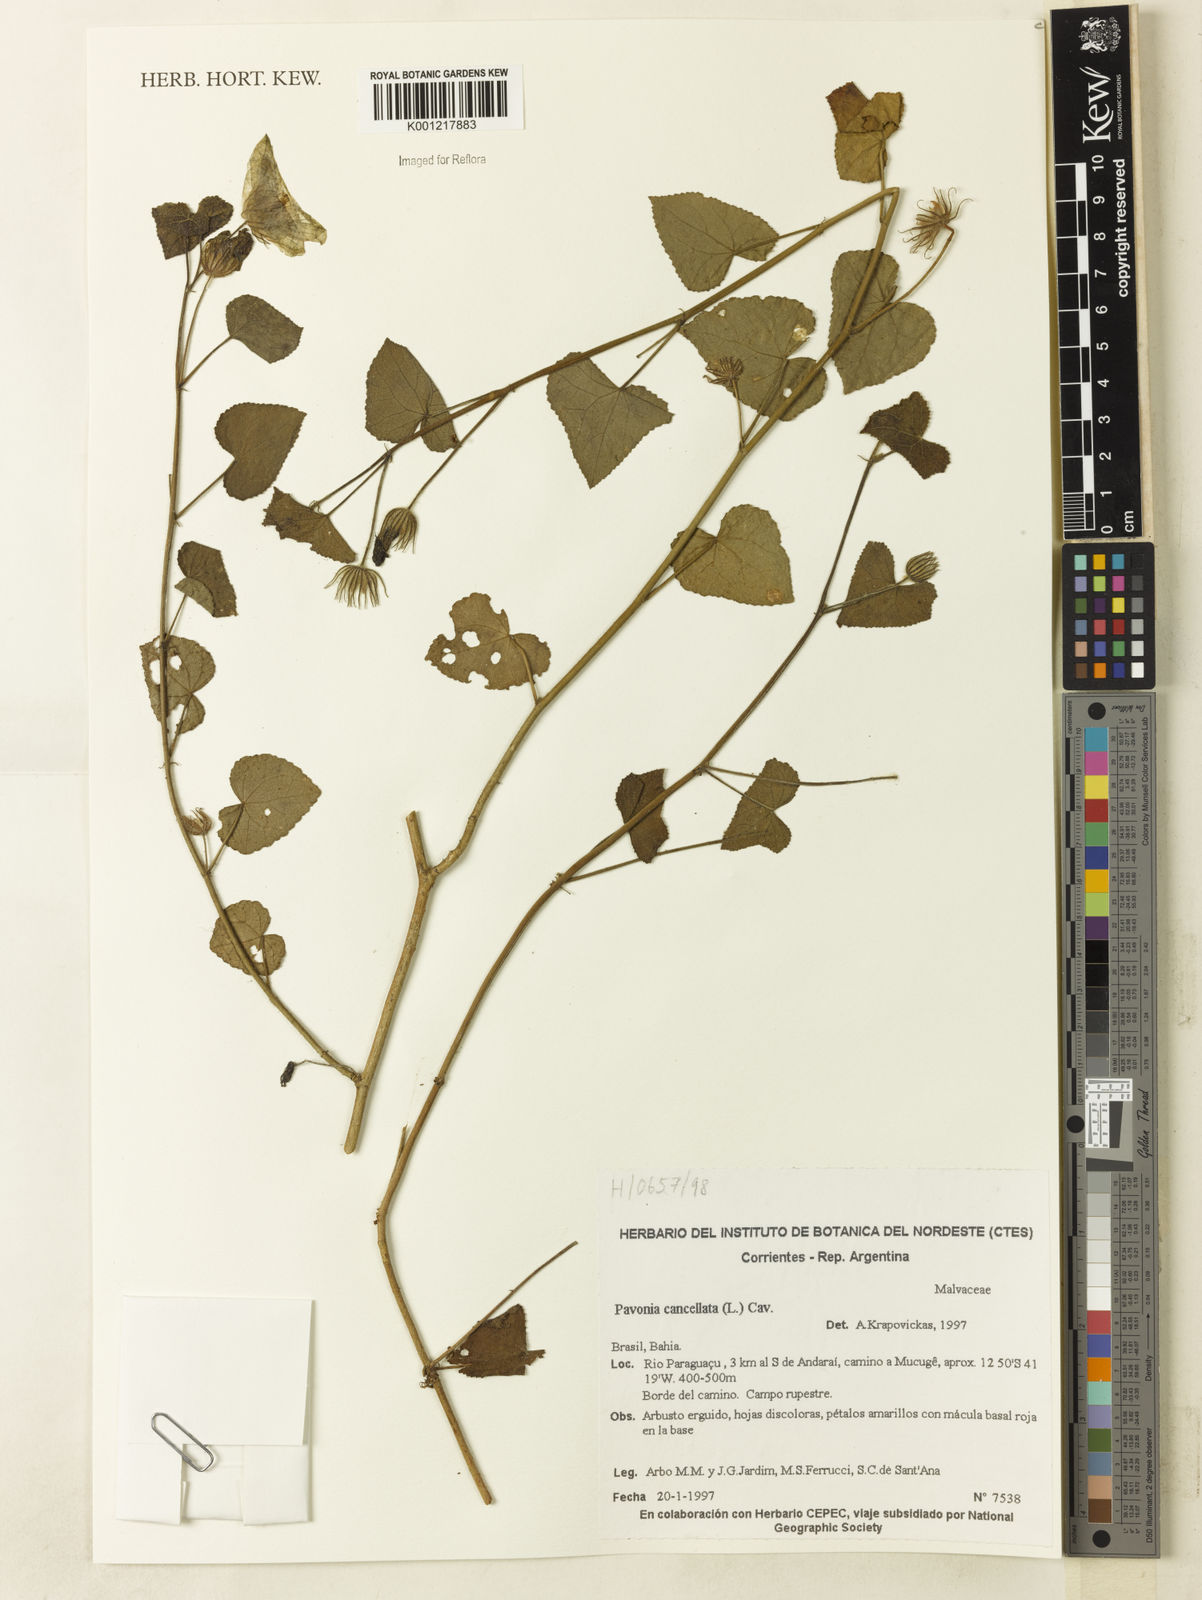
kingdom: Plantae
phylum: Tracheophyta
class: Magnoliopsida
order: Malvales
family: Malvaceae
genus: Pavonia
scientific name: Pavonia cancellata
